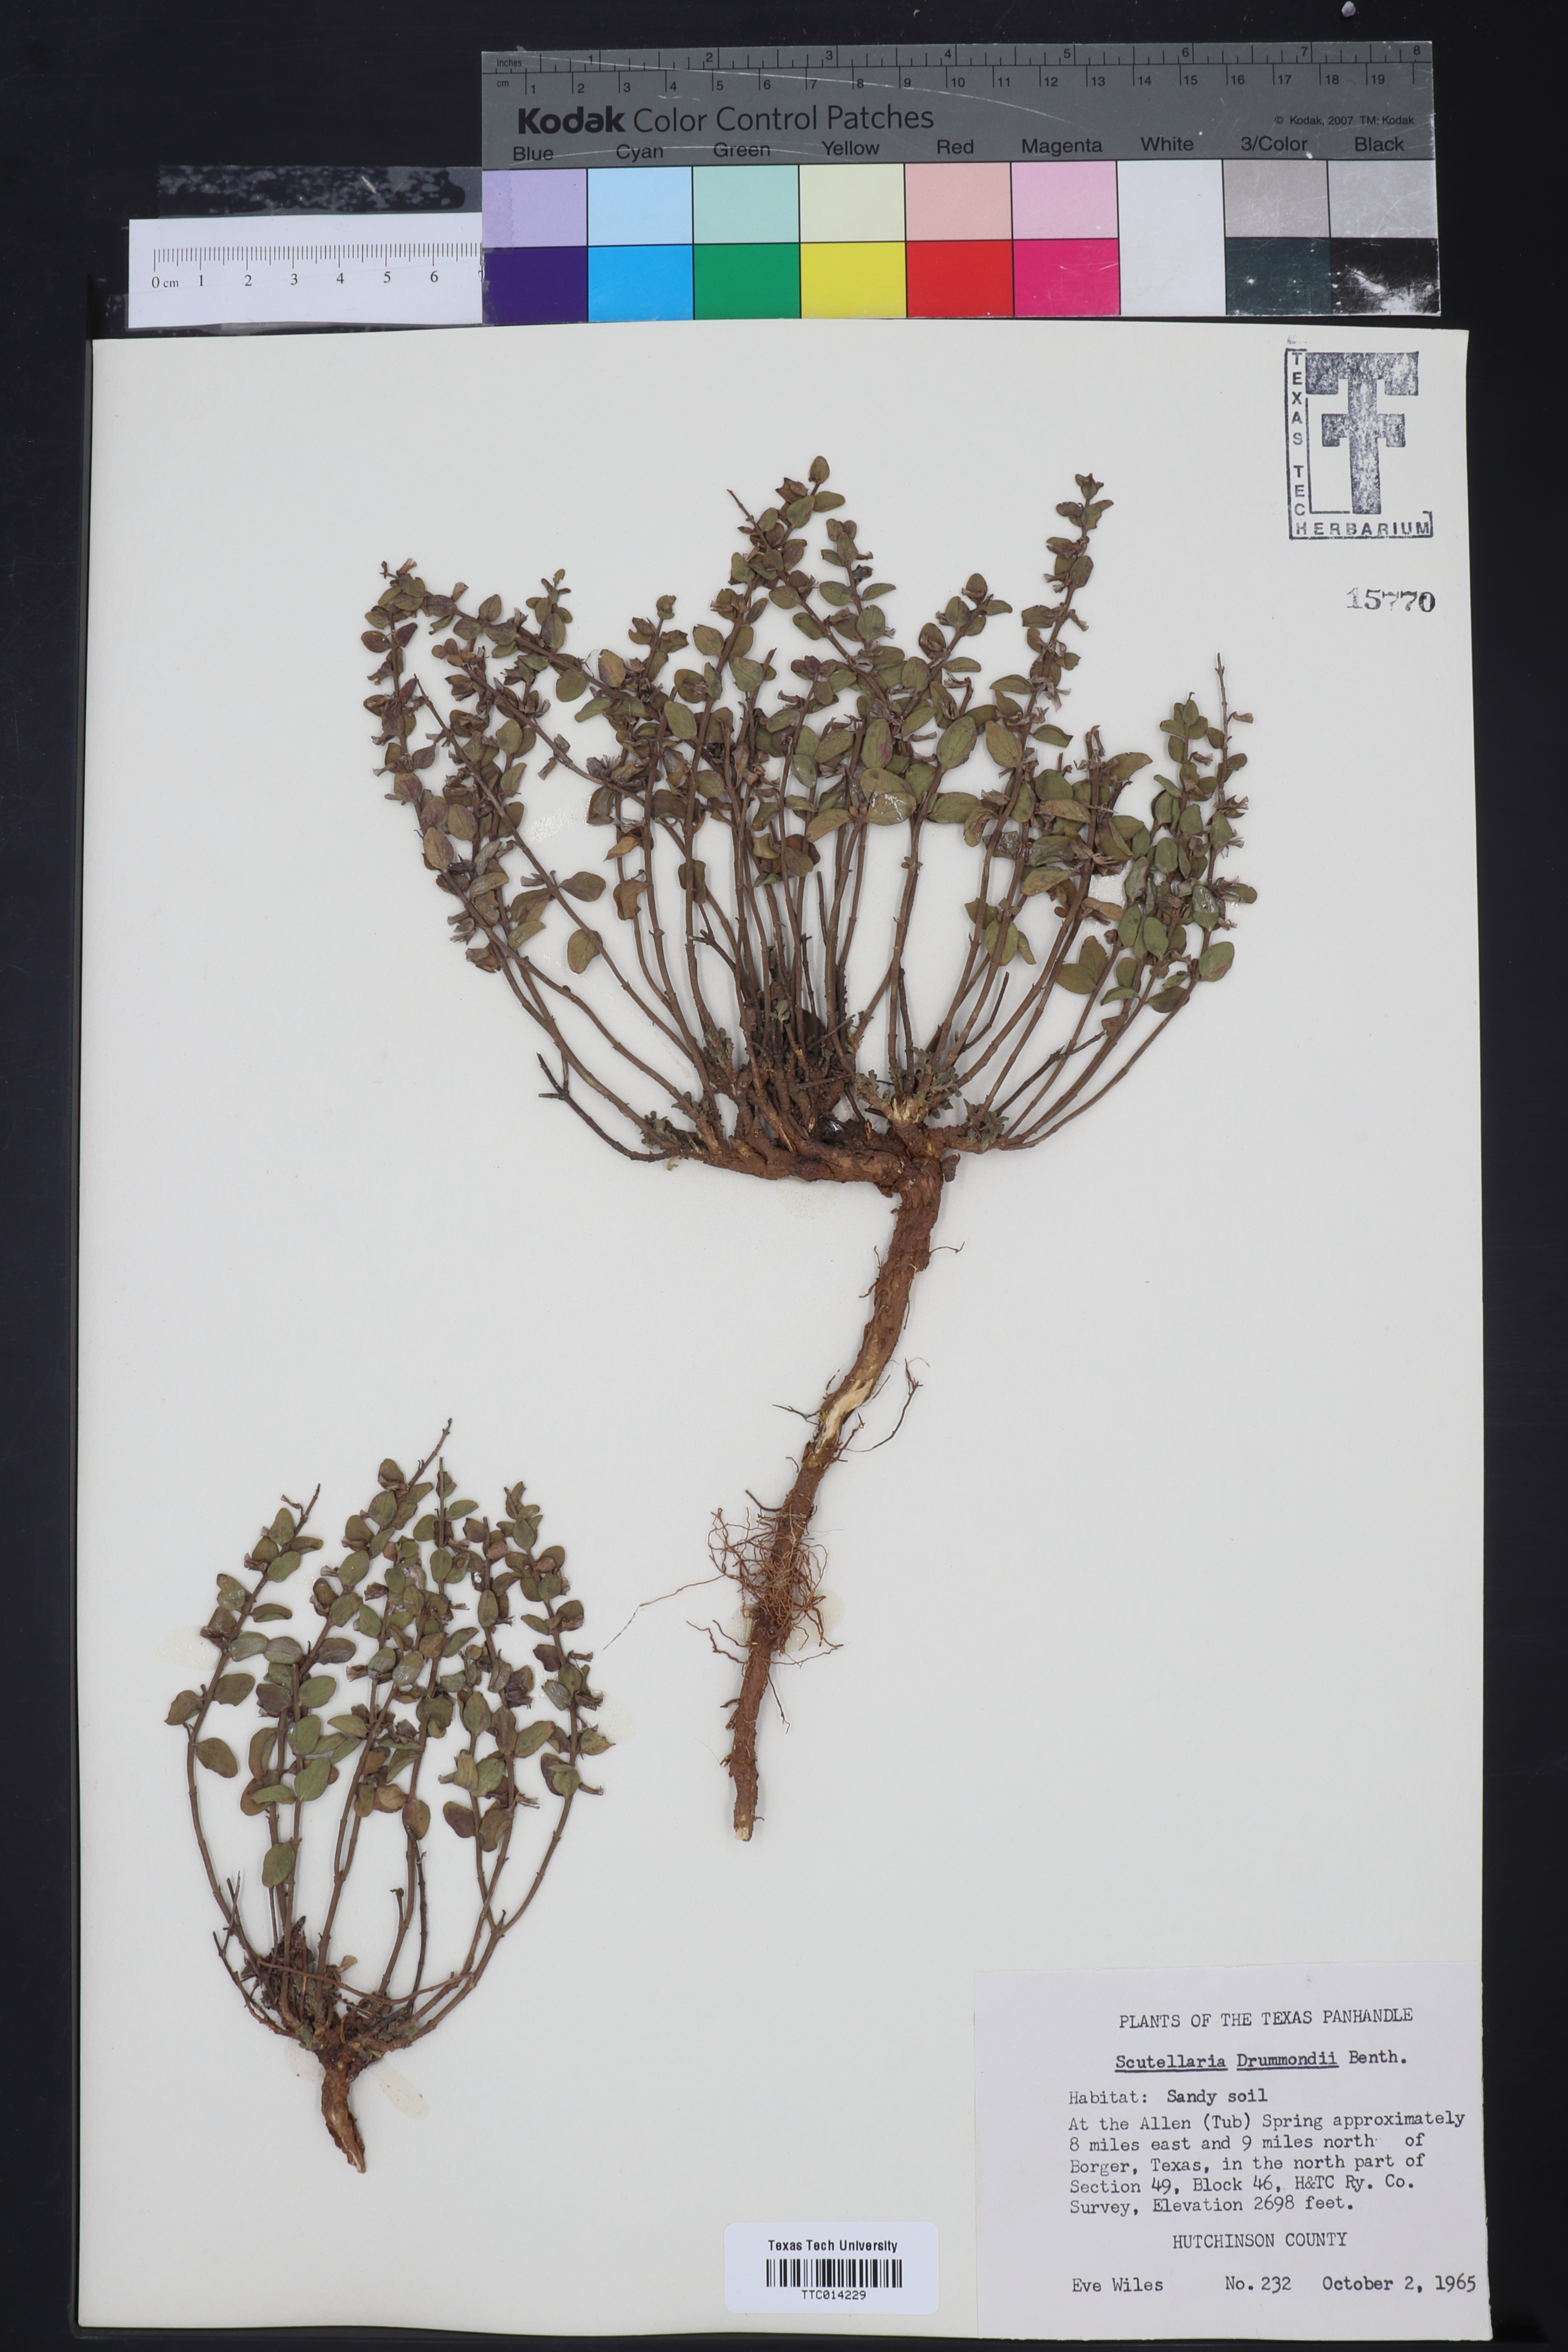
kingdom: Plantae
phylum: Tracheophyta
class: Magnoliopsida
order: Lamiales
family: Lamiaceae
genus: Scutellaria
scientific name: Scutellaria drummondii
